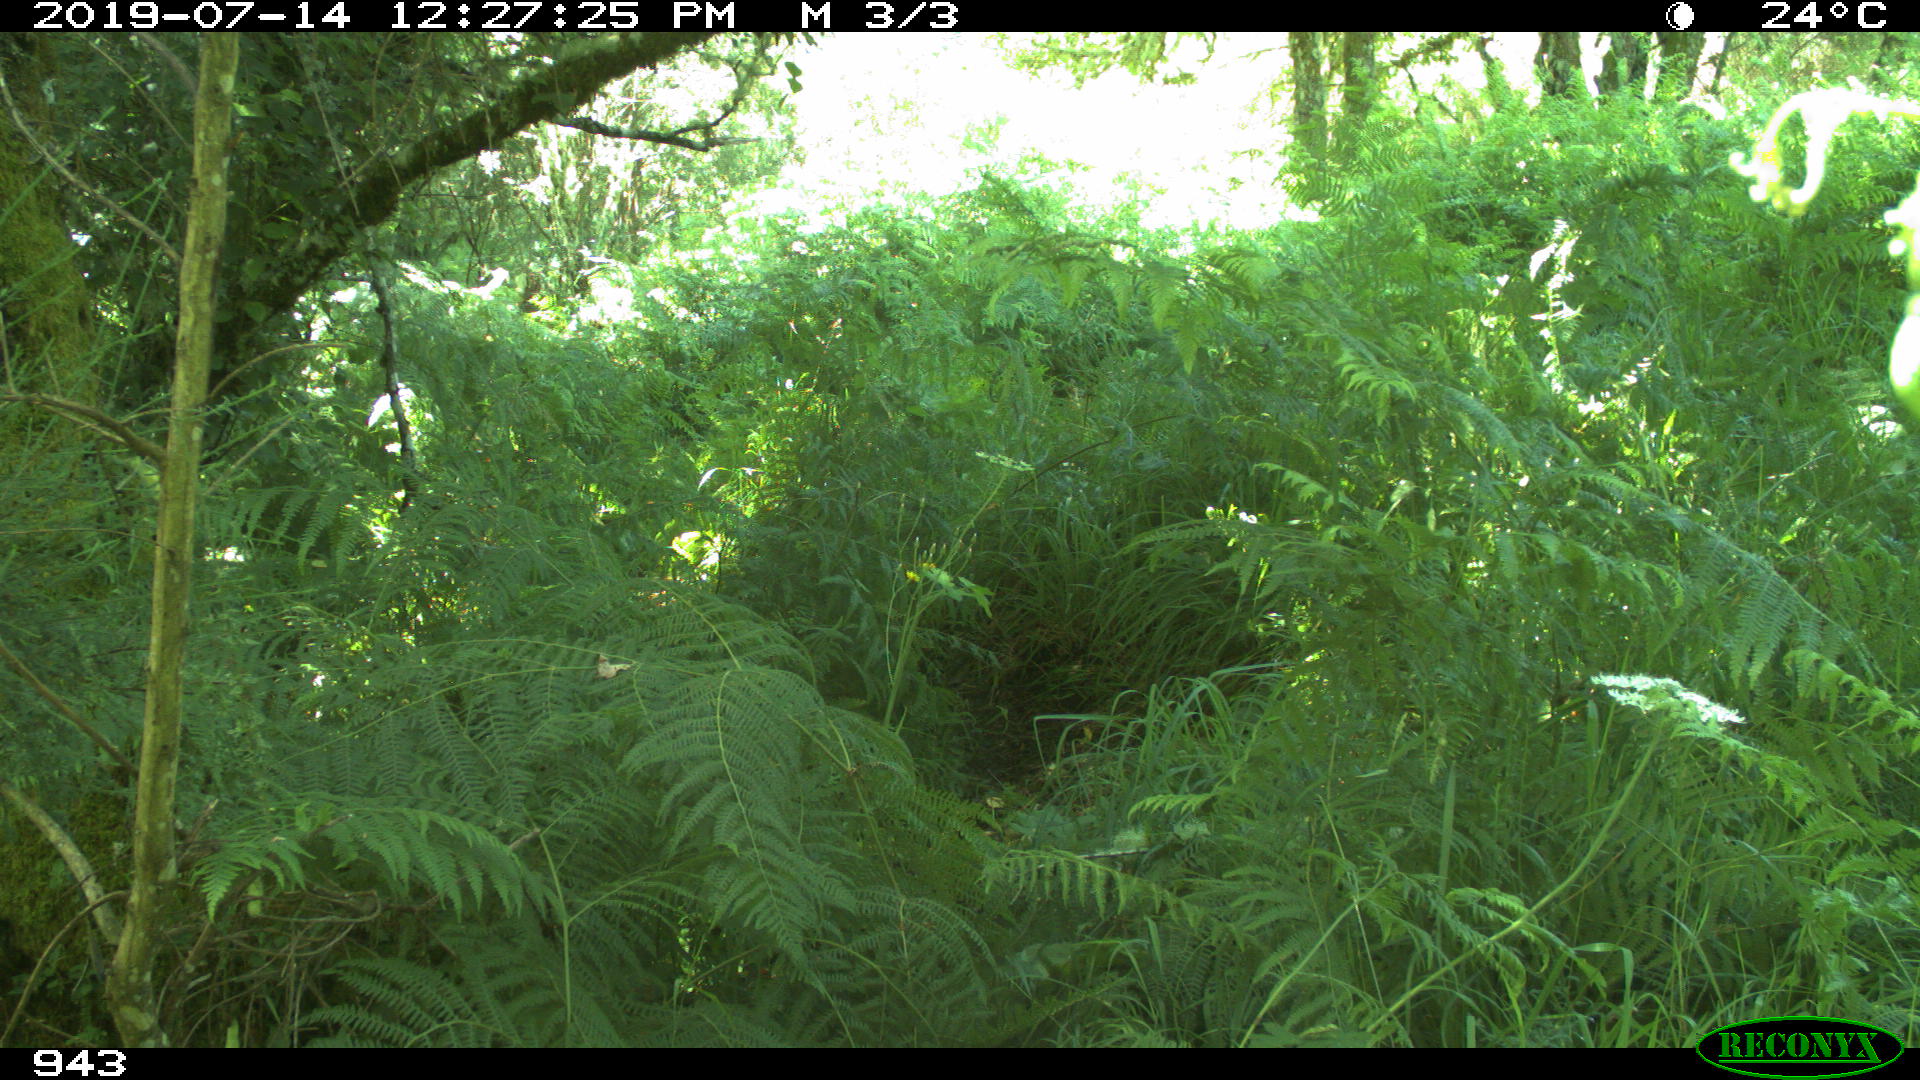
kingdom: Animalia
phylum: Chordata
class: Mammalia
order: Carnivora
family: Canidae
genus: Canis
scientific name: Canis lupus
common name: Gray wolf
